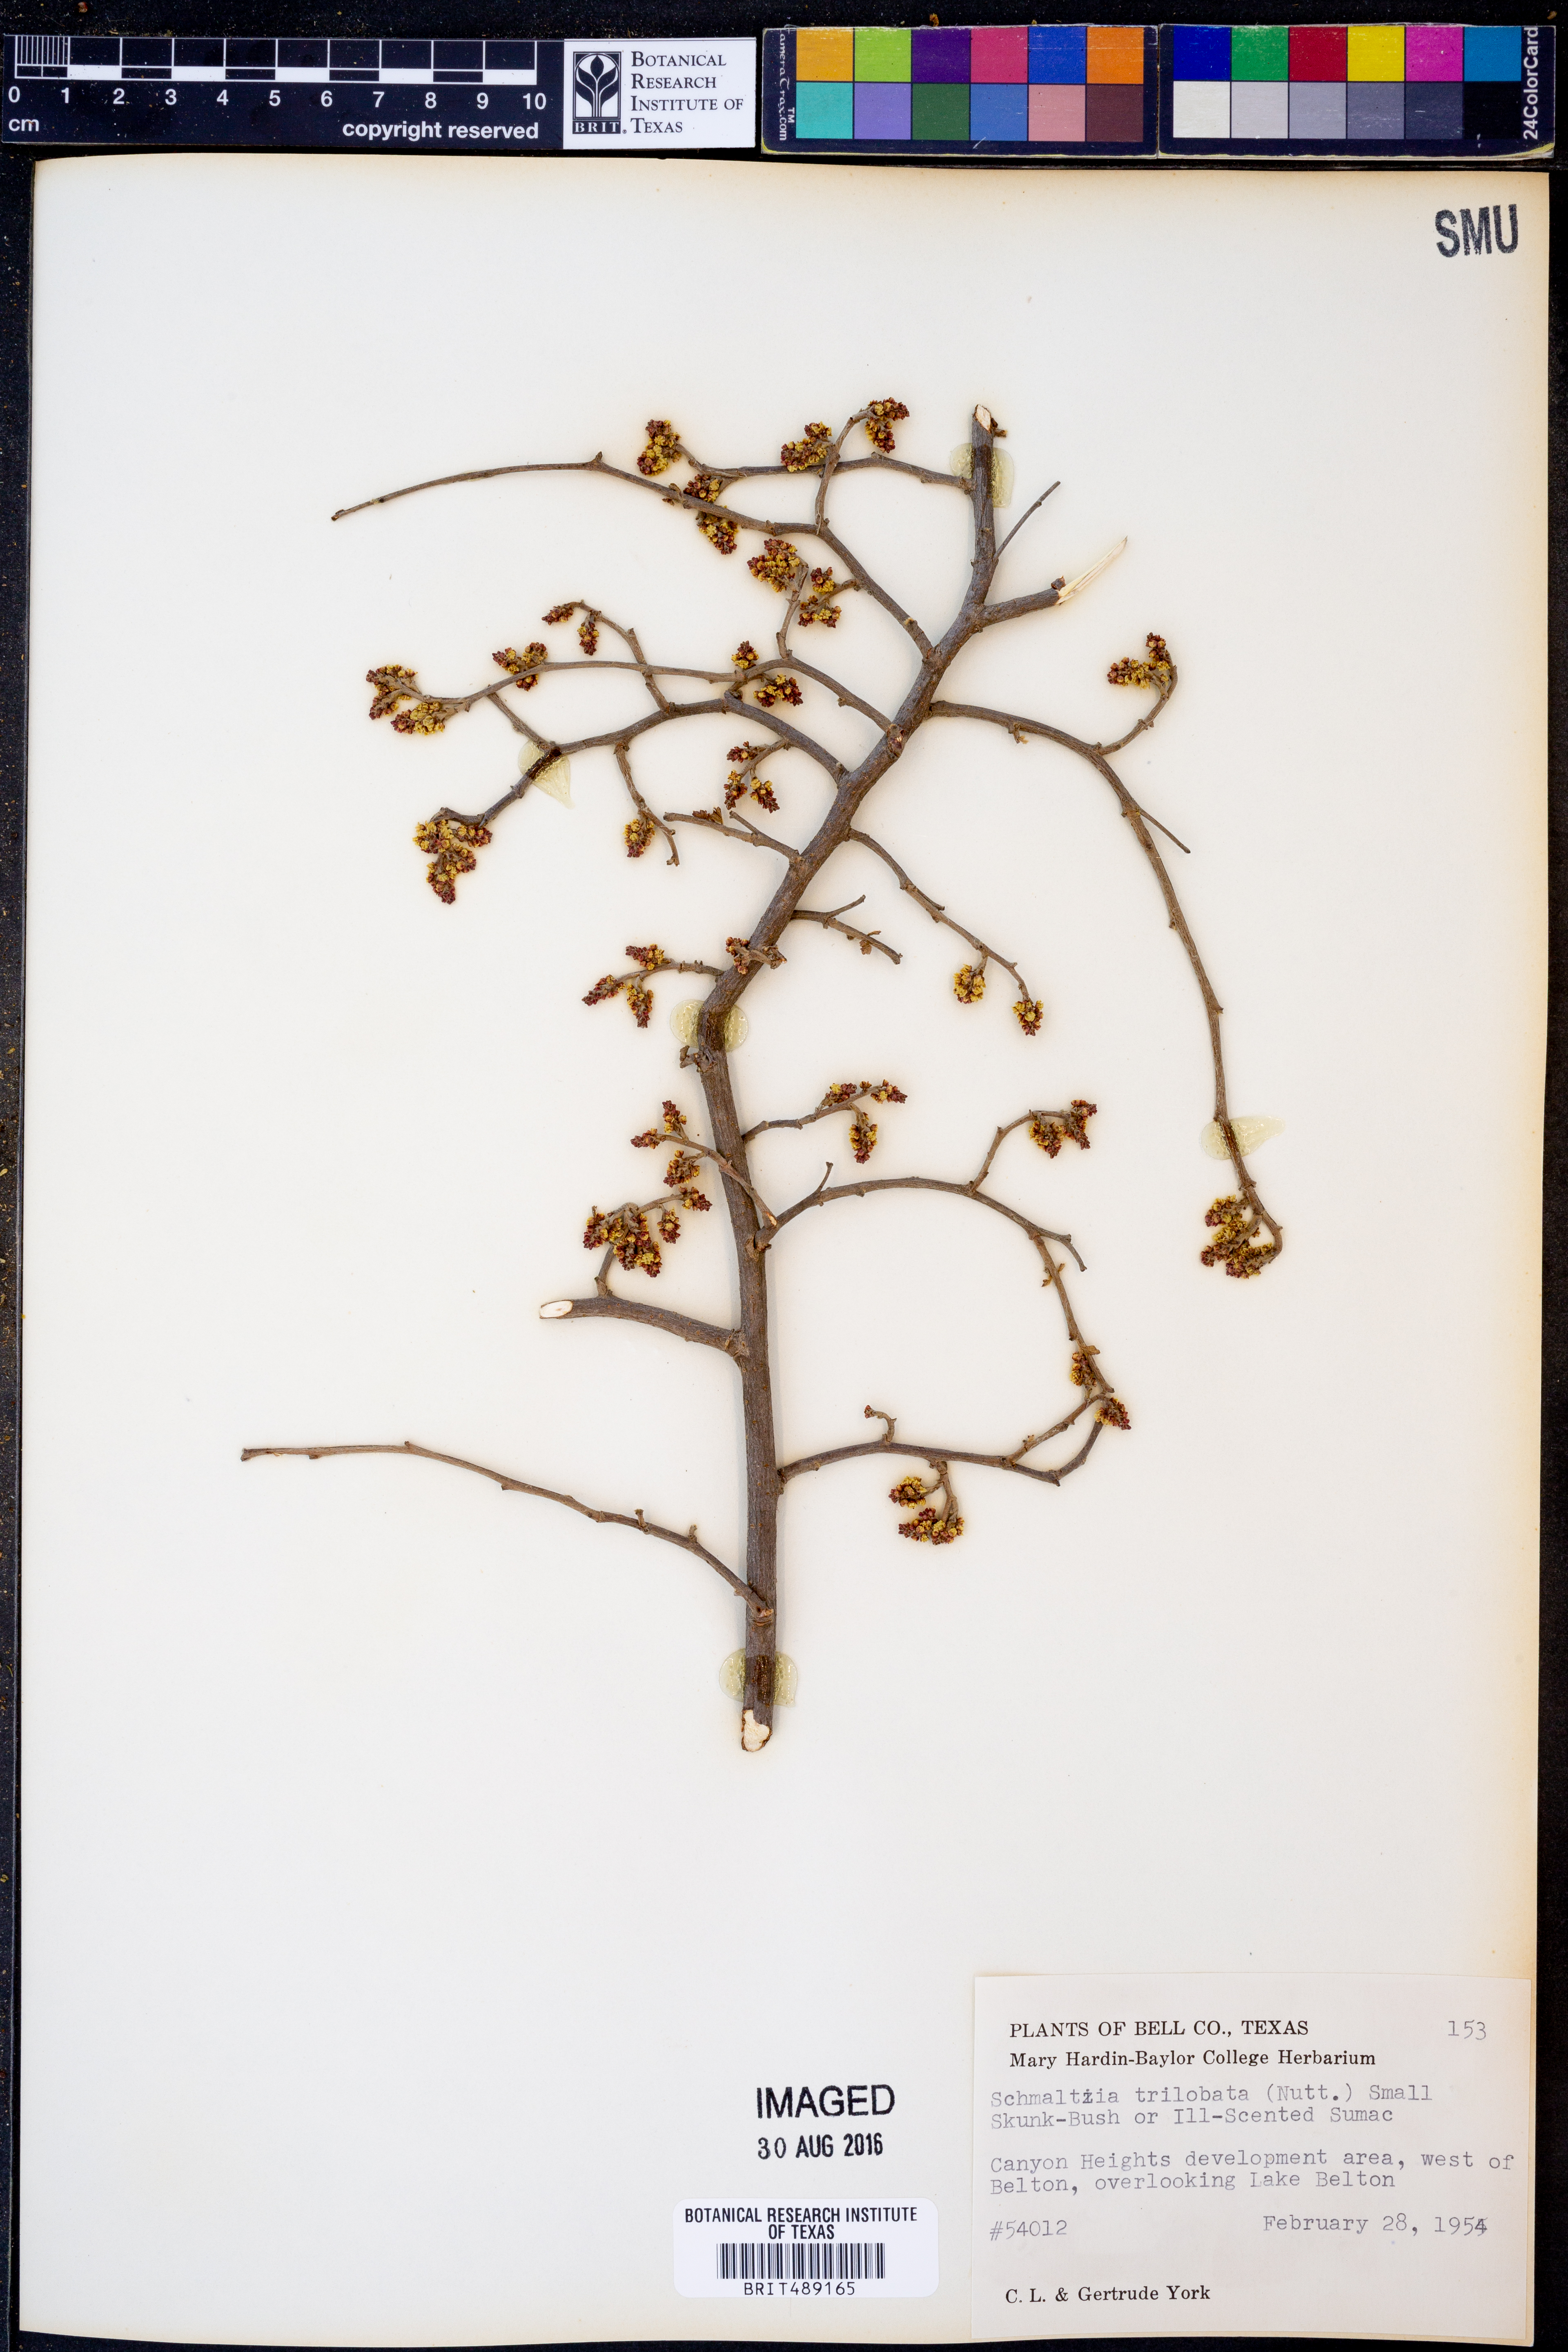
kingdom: Plantae
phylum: Tracheophyta
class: Magnoliopsida
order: Sapindales
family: Anacardiaceae
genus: Rhus
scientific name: Rhus trilobata
